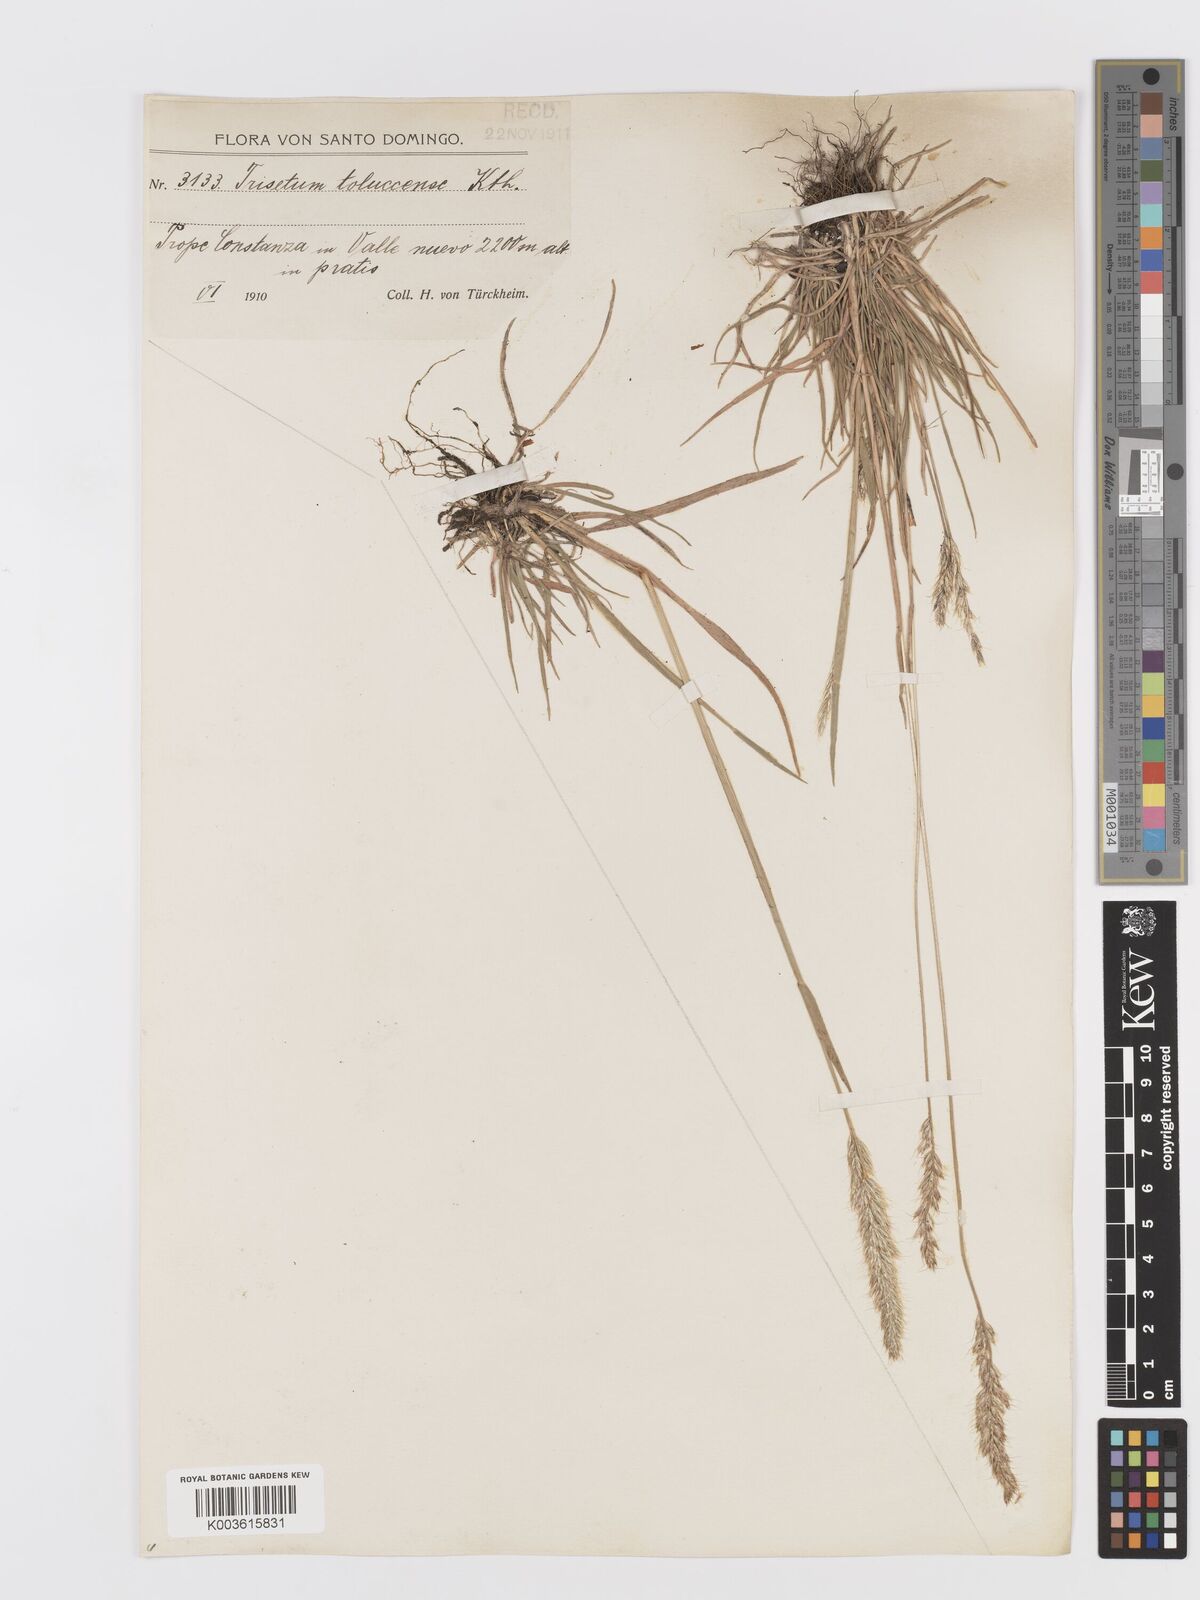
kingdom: Plantae
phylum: Tracheophyta
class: Liliopsida
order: Poales
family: Poaceae
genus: Koeleria
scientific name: Koeleria spicata
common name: Mountain trisetum
